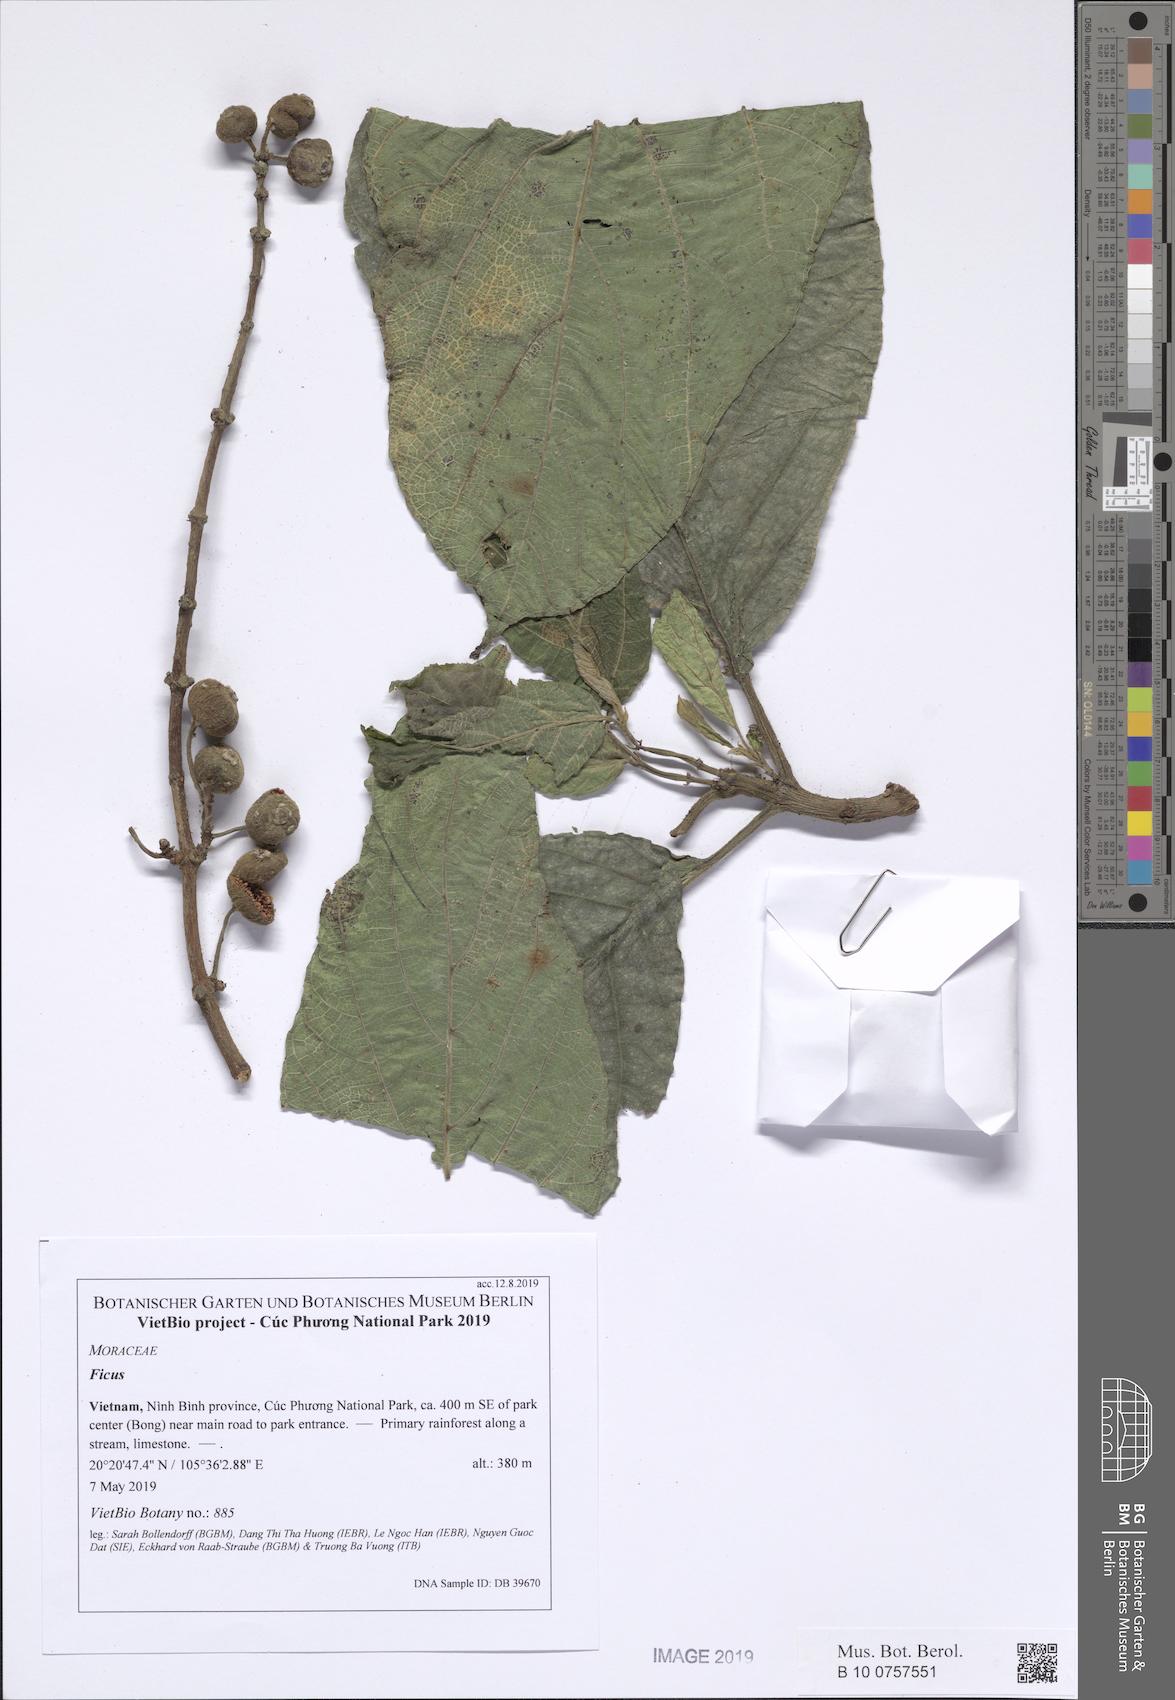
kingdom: Plantae
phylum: Tracheophyta
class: Magnoliopsida
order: Rosales
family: Moraceae
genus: Ficus
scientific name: Ficus tikoua
